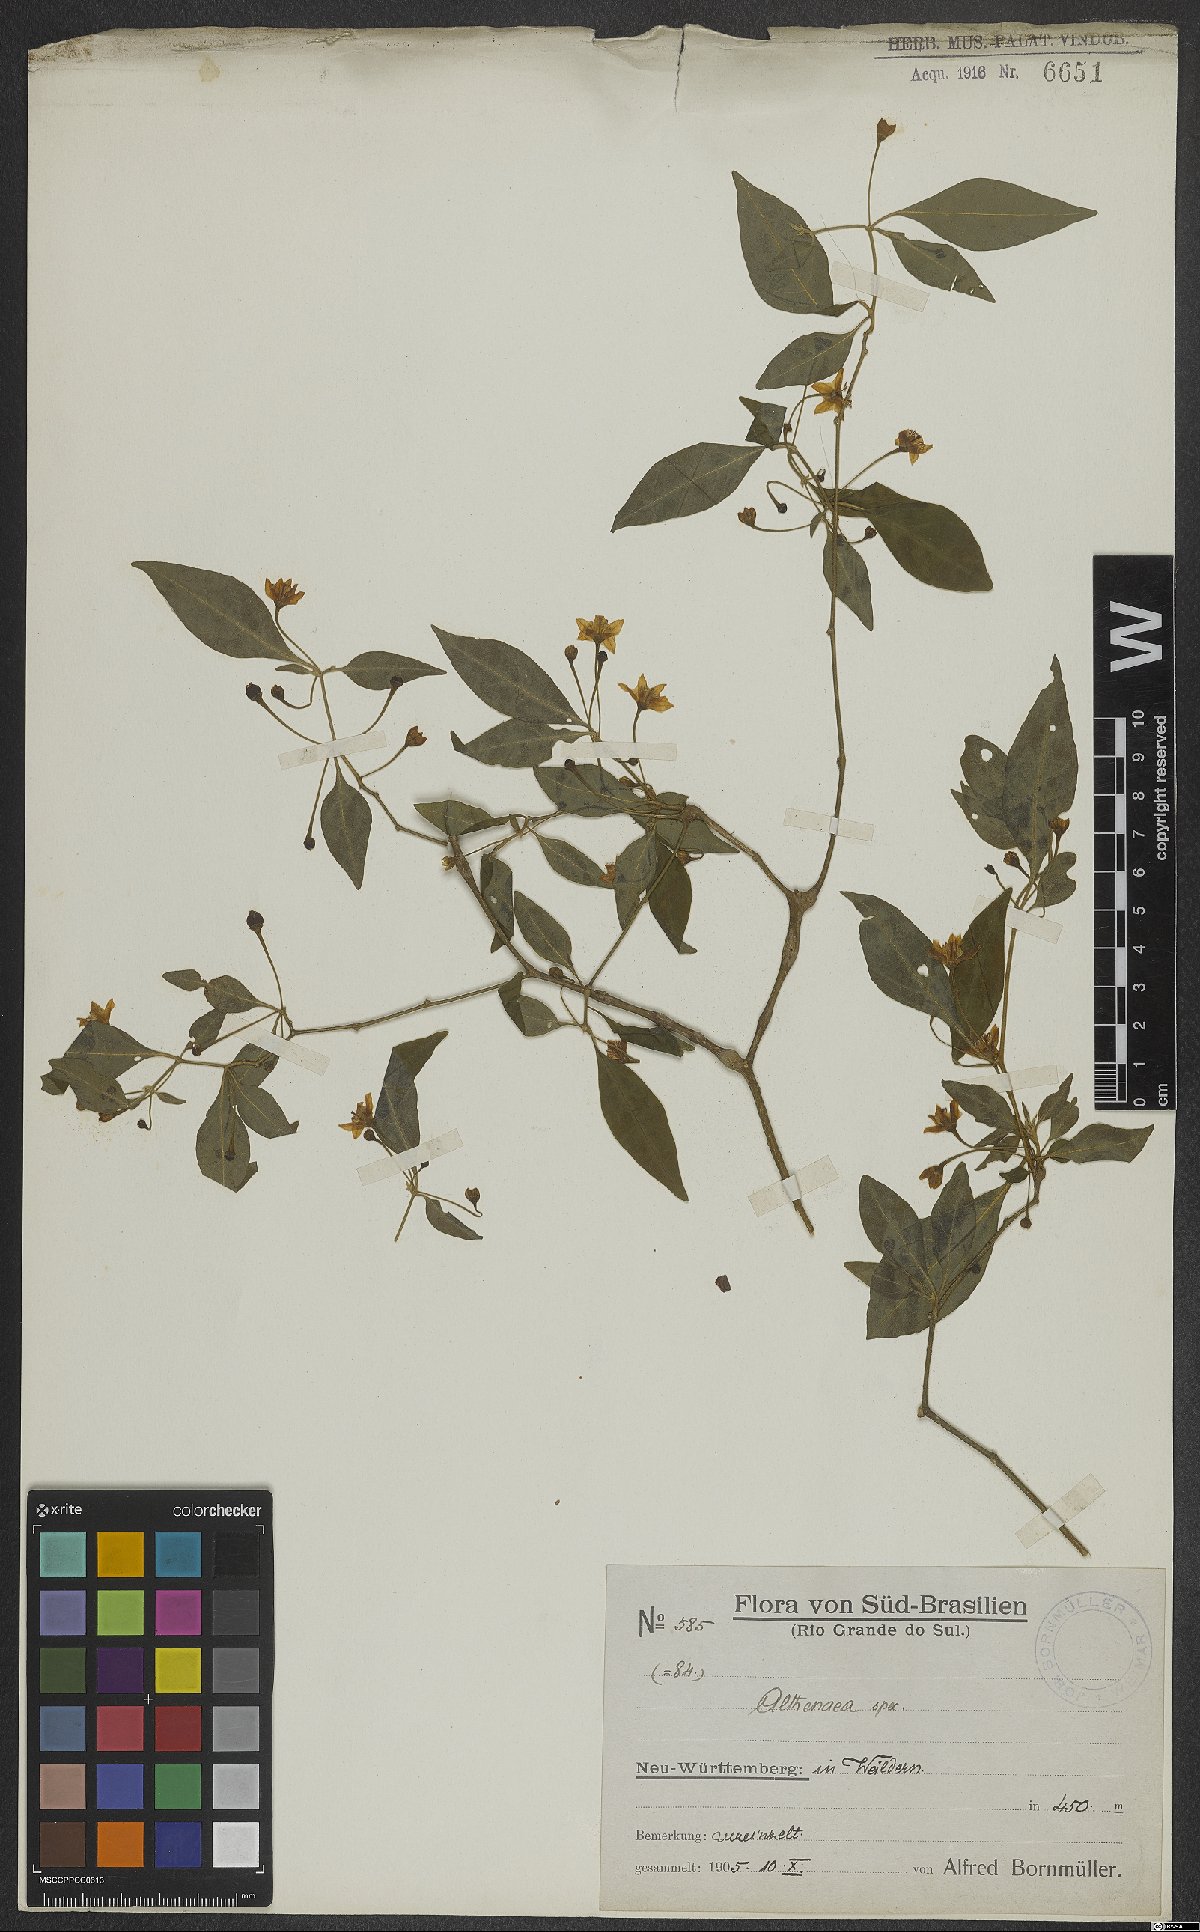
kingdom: Plantae
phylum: Tracheophyta
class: Magnoliopsida
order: Solanales
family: Solanaceae
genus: Athenaea
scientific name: Athenaea
